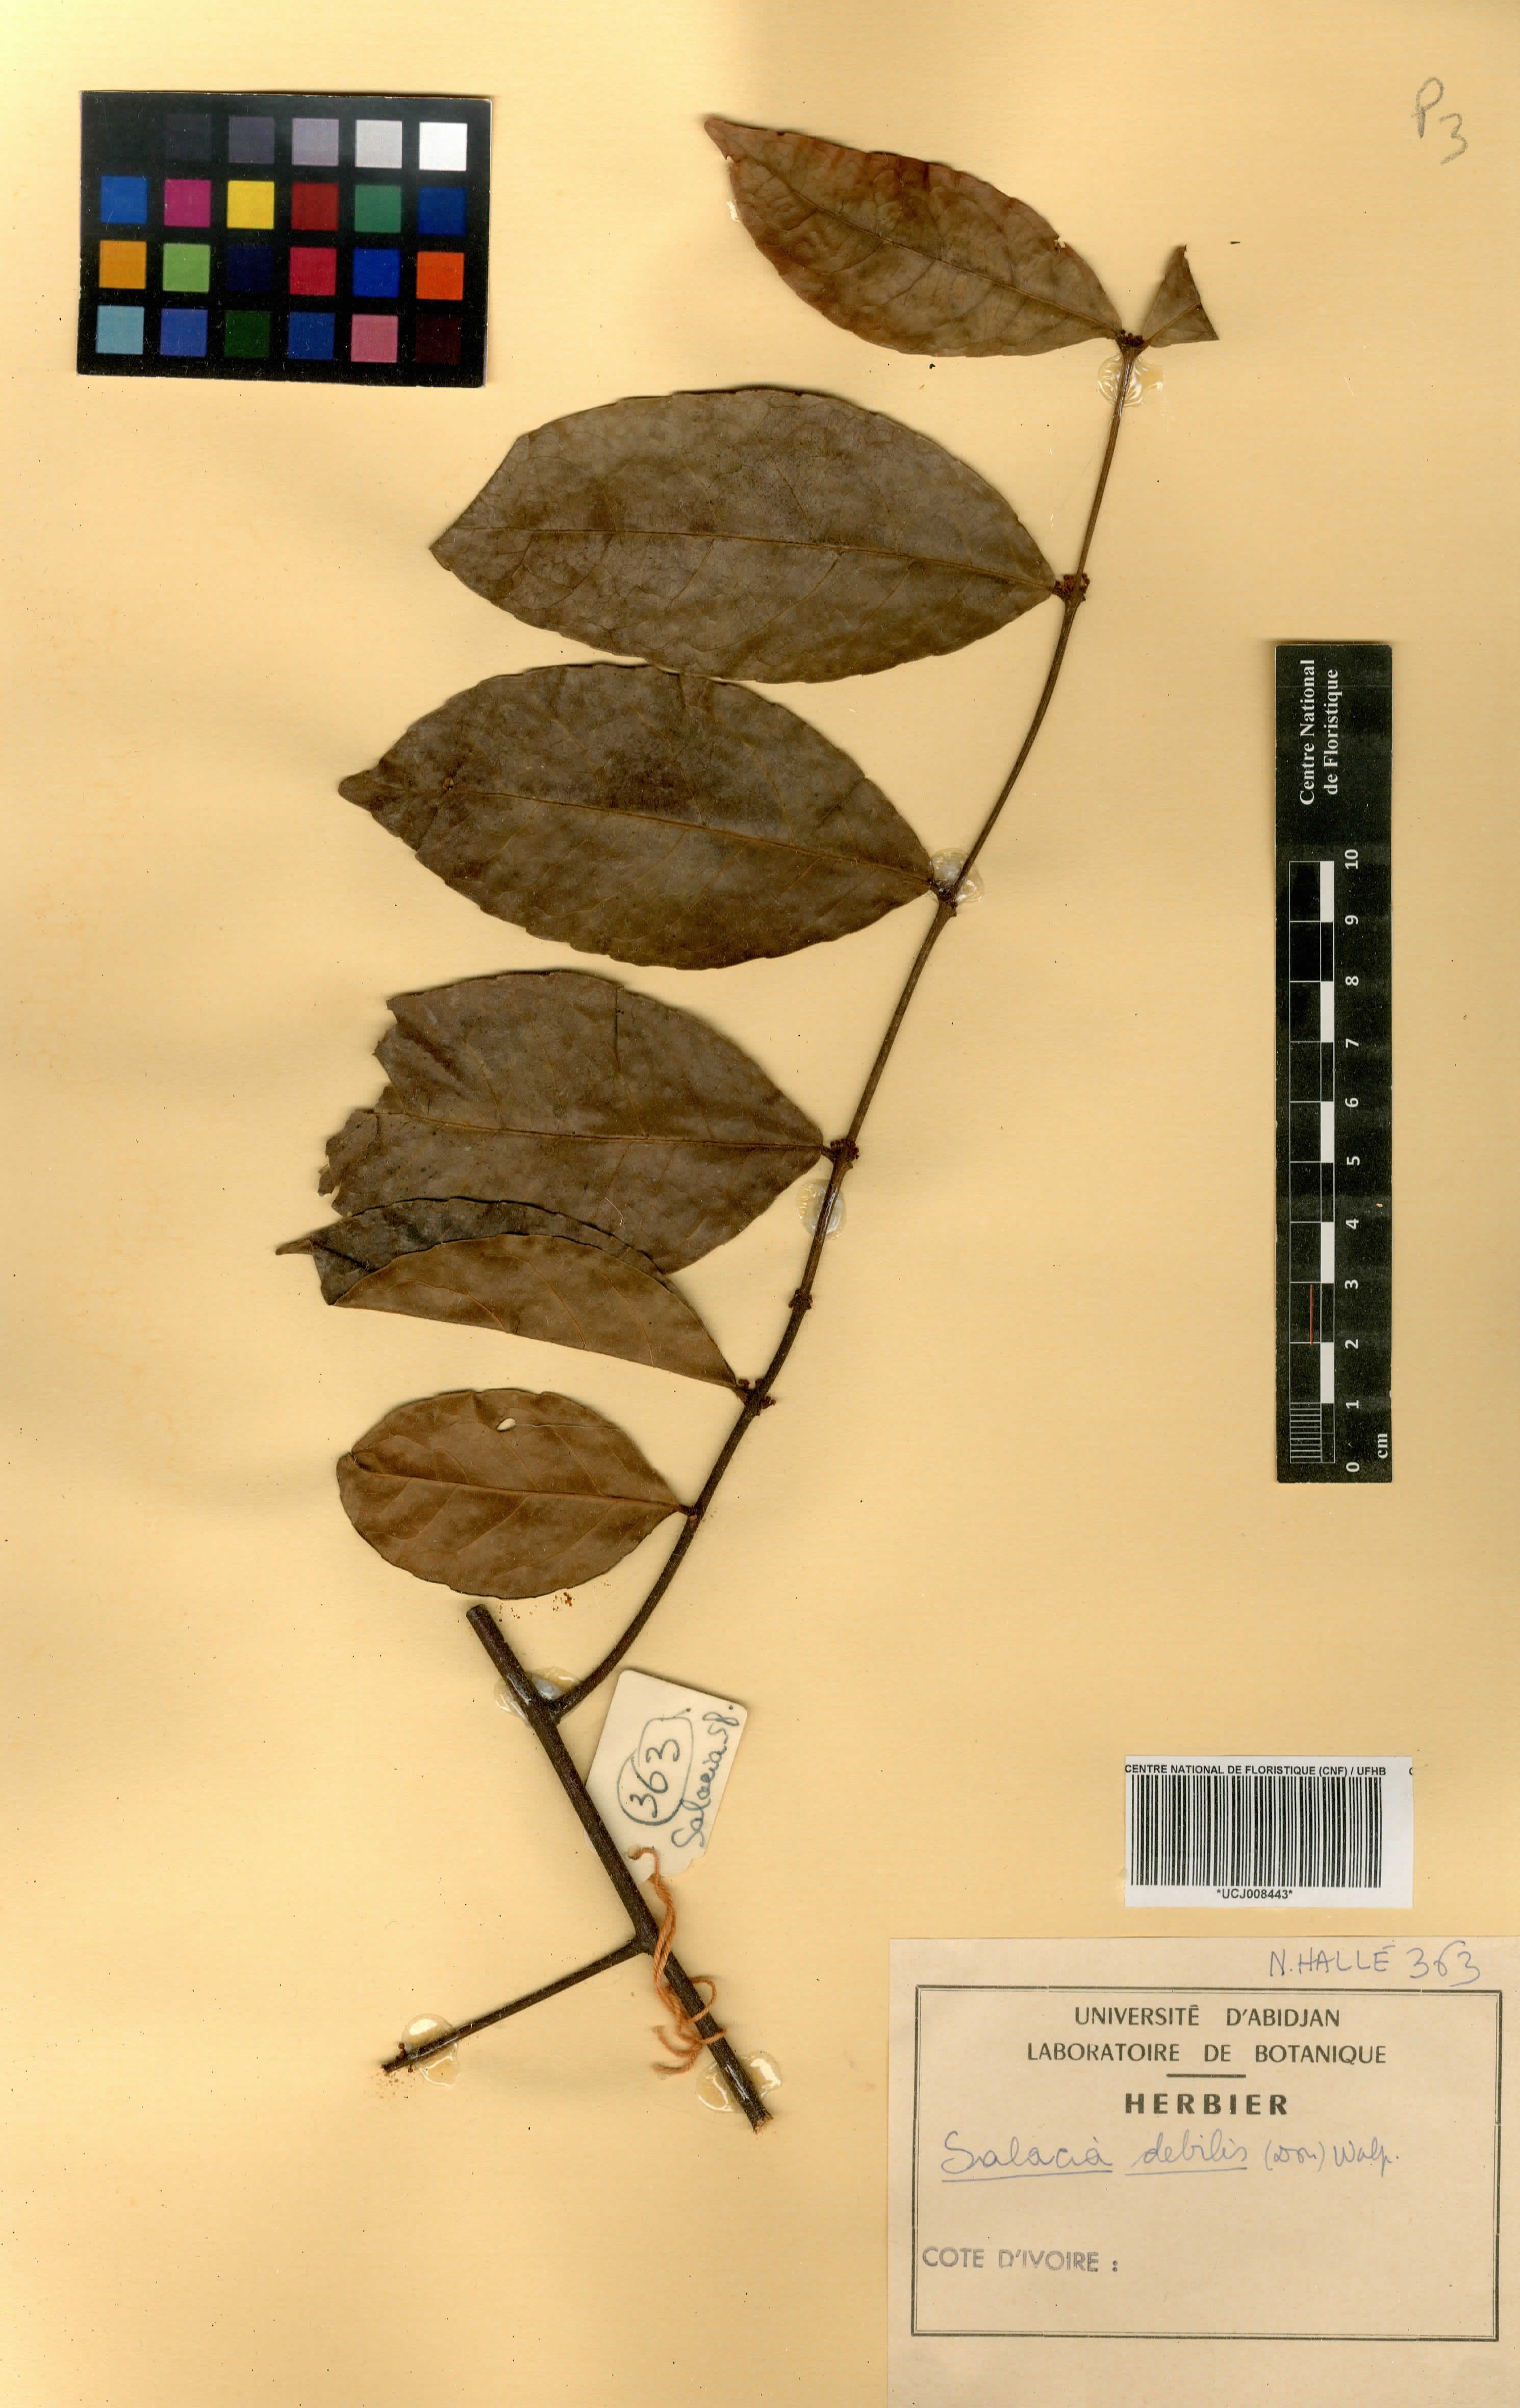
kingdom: Plantae
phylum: Tracheophyta
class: Magnoliopsida
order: Celastrales
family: Celastraceae
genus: Salacia
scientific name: Salacia debilis
